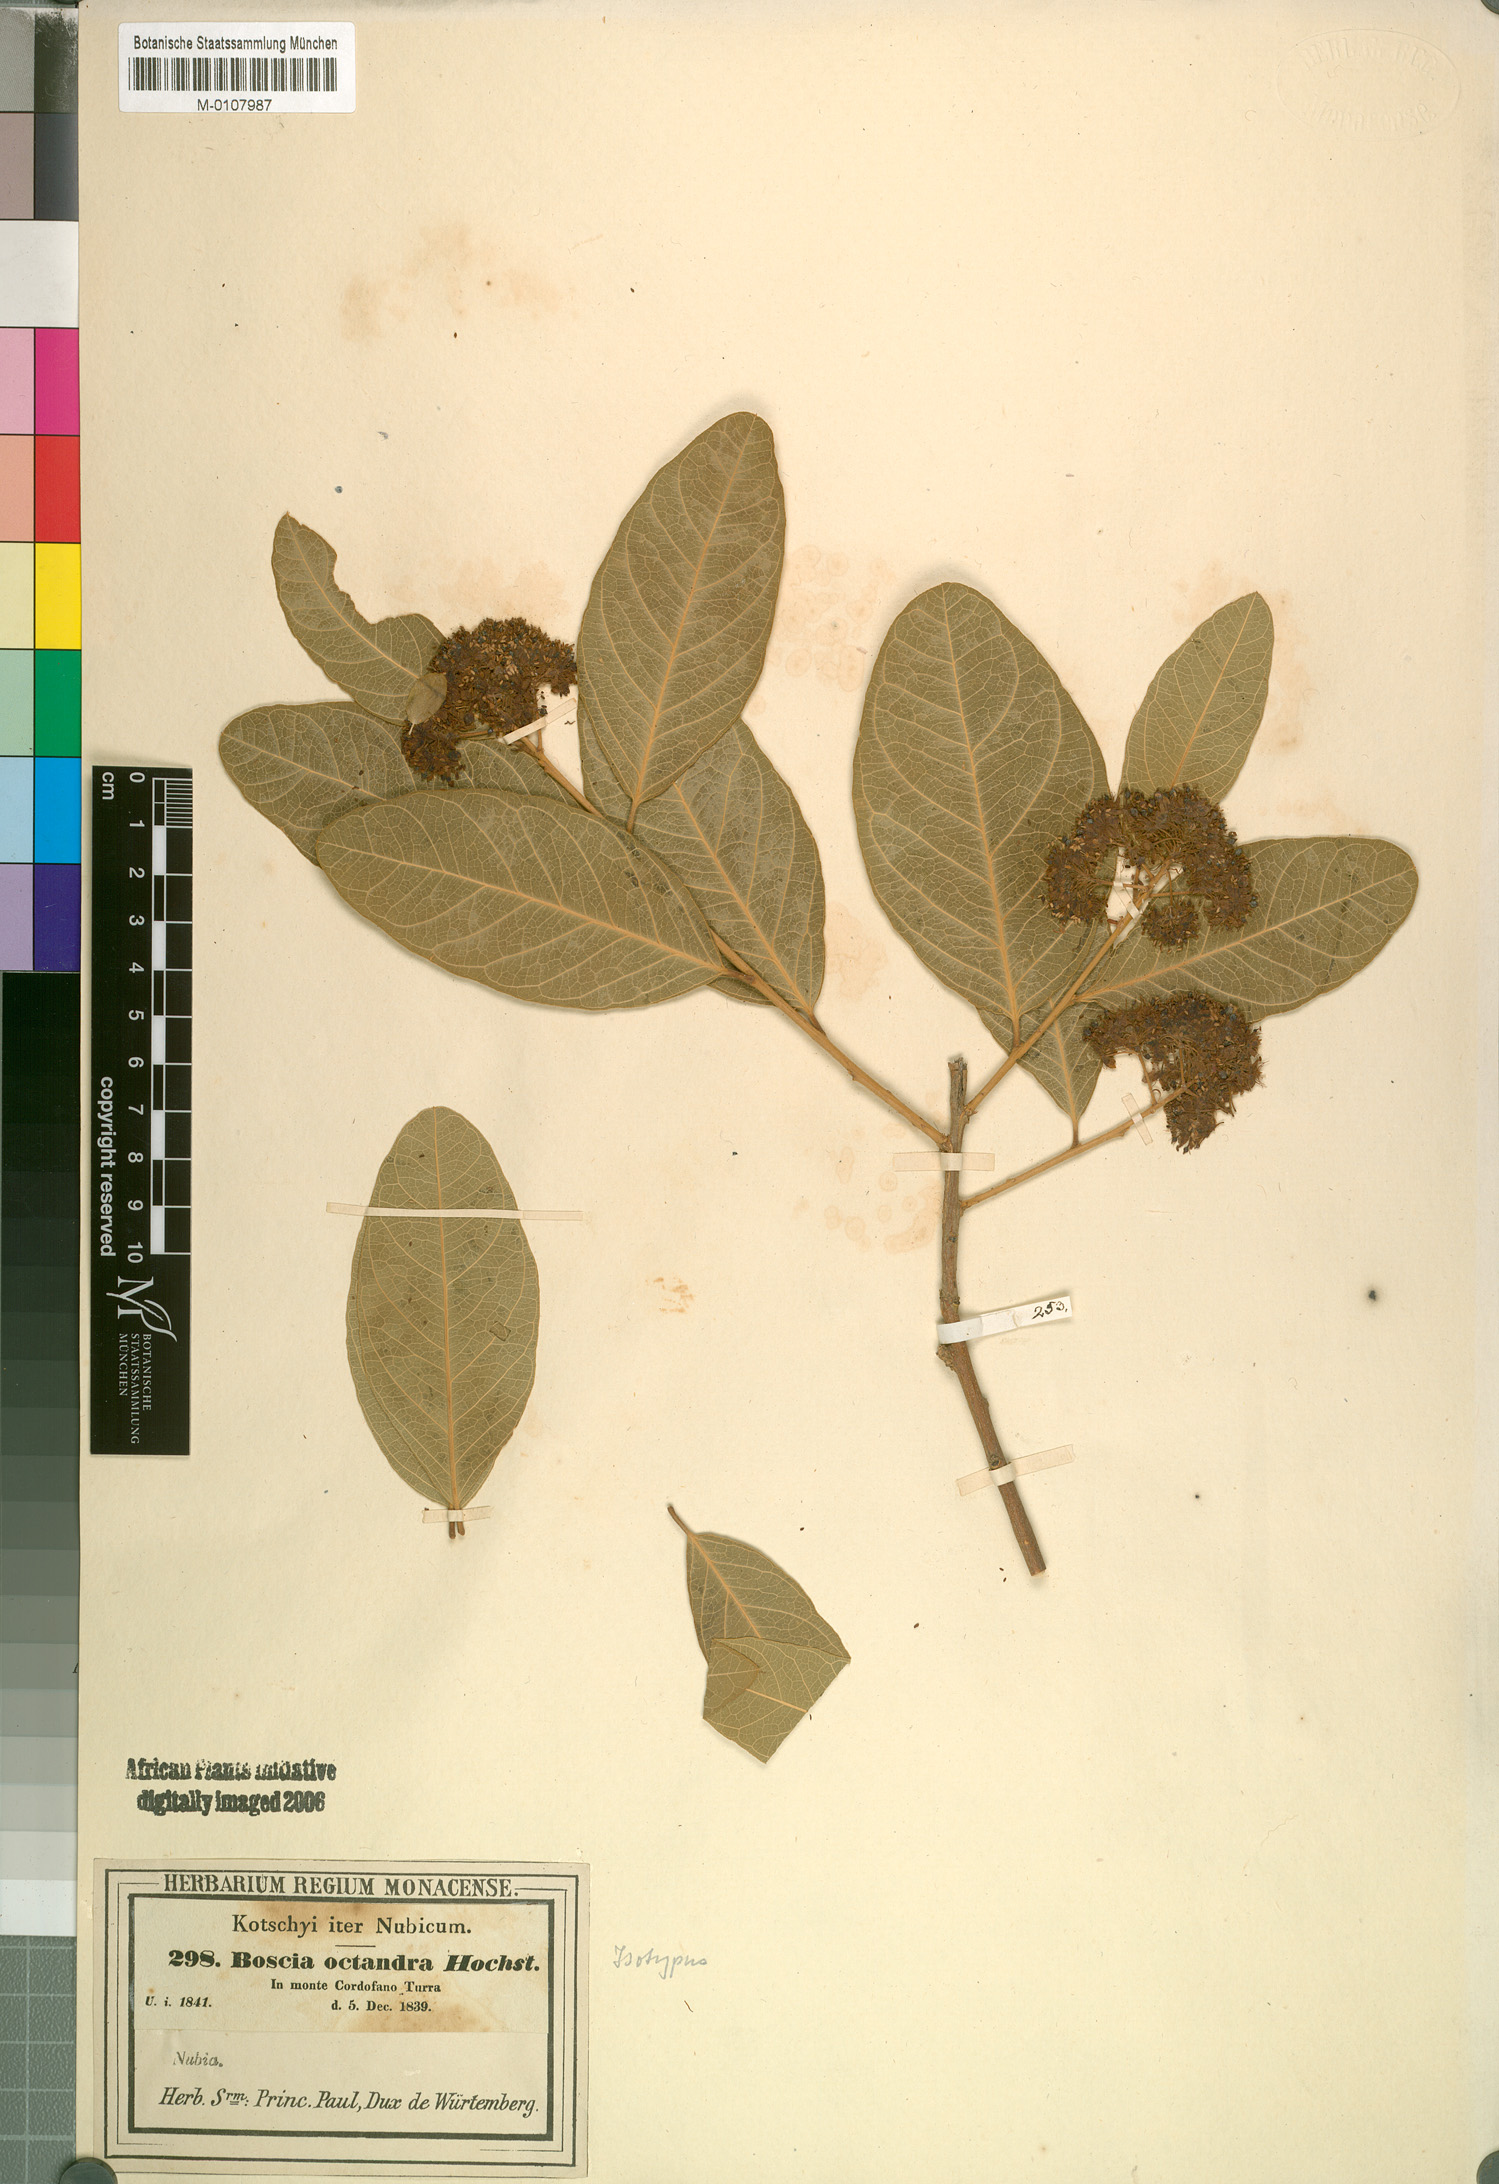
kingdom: Plantae
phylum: Tracheophyta
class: Magnoliopsida
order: Brassicales
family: Capparaceae
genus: Boscia
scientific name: Boscia senegalensis
